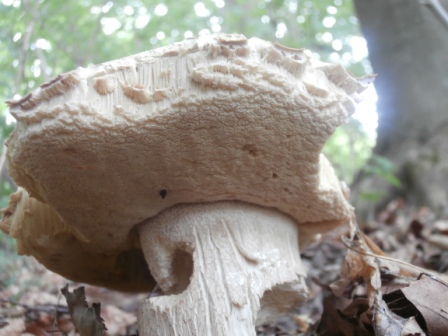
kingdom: Fungi
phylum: Basidiomycota
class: Agaricomycetes
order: Boletales
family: Boletaceae
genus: Boletus
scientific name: Boletus reticulatus
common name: sommer-rørhat
